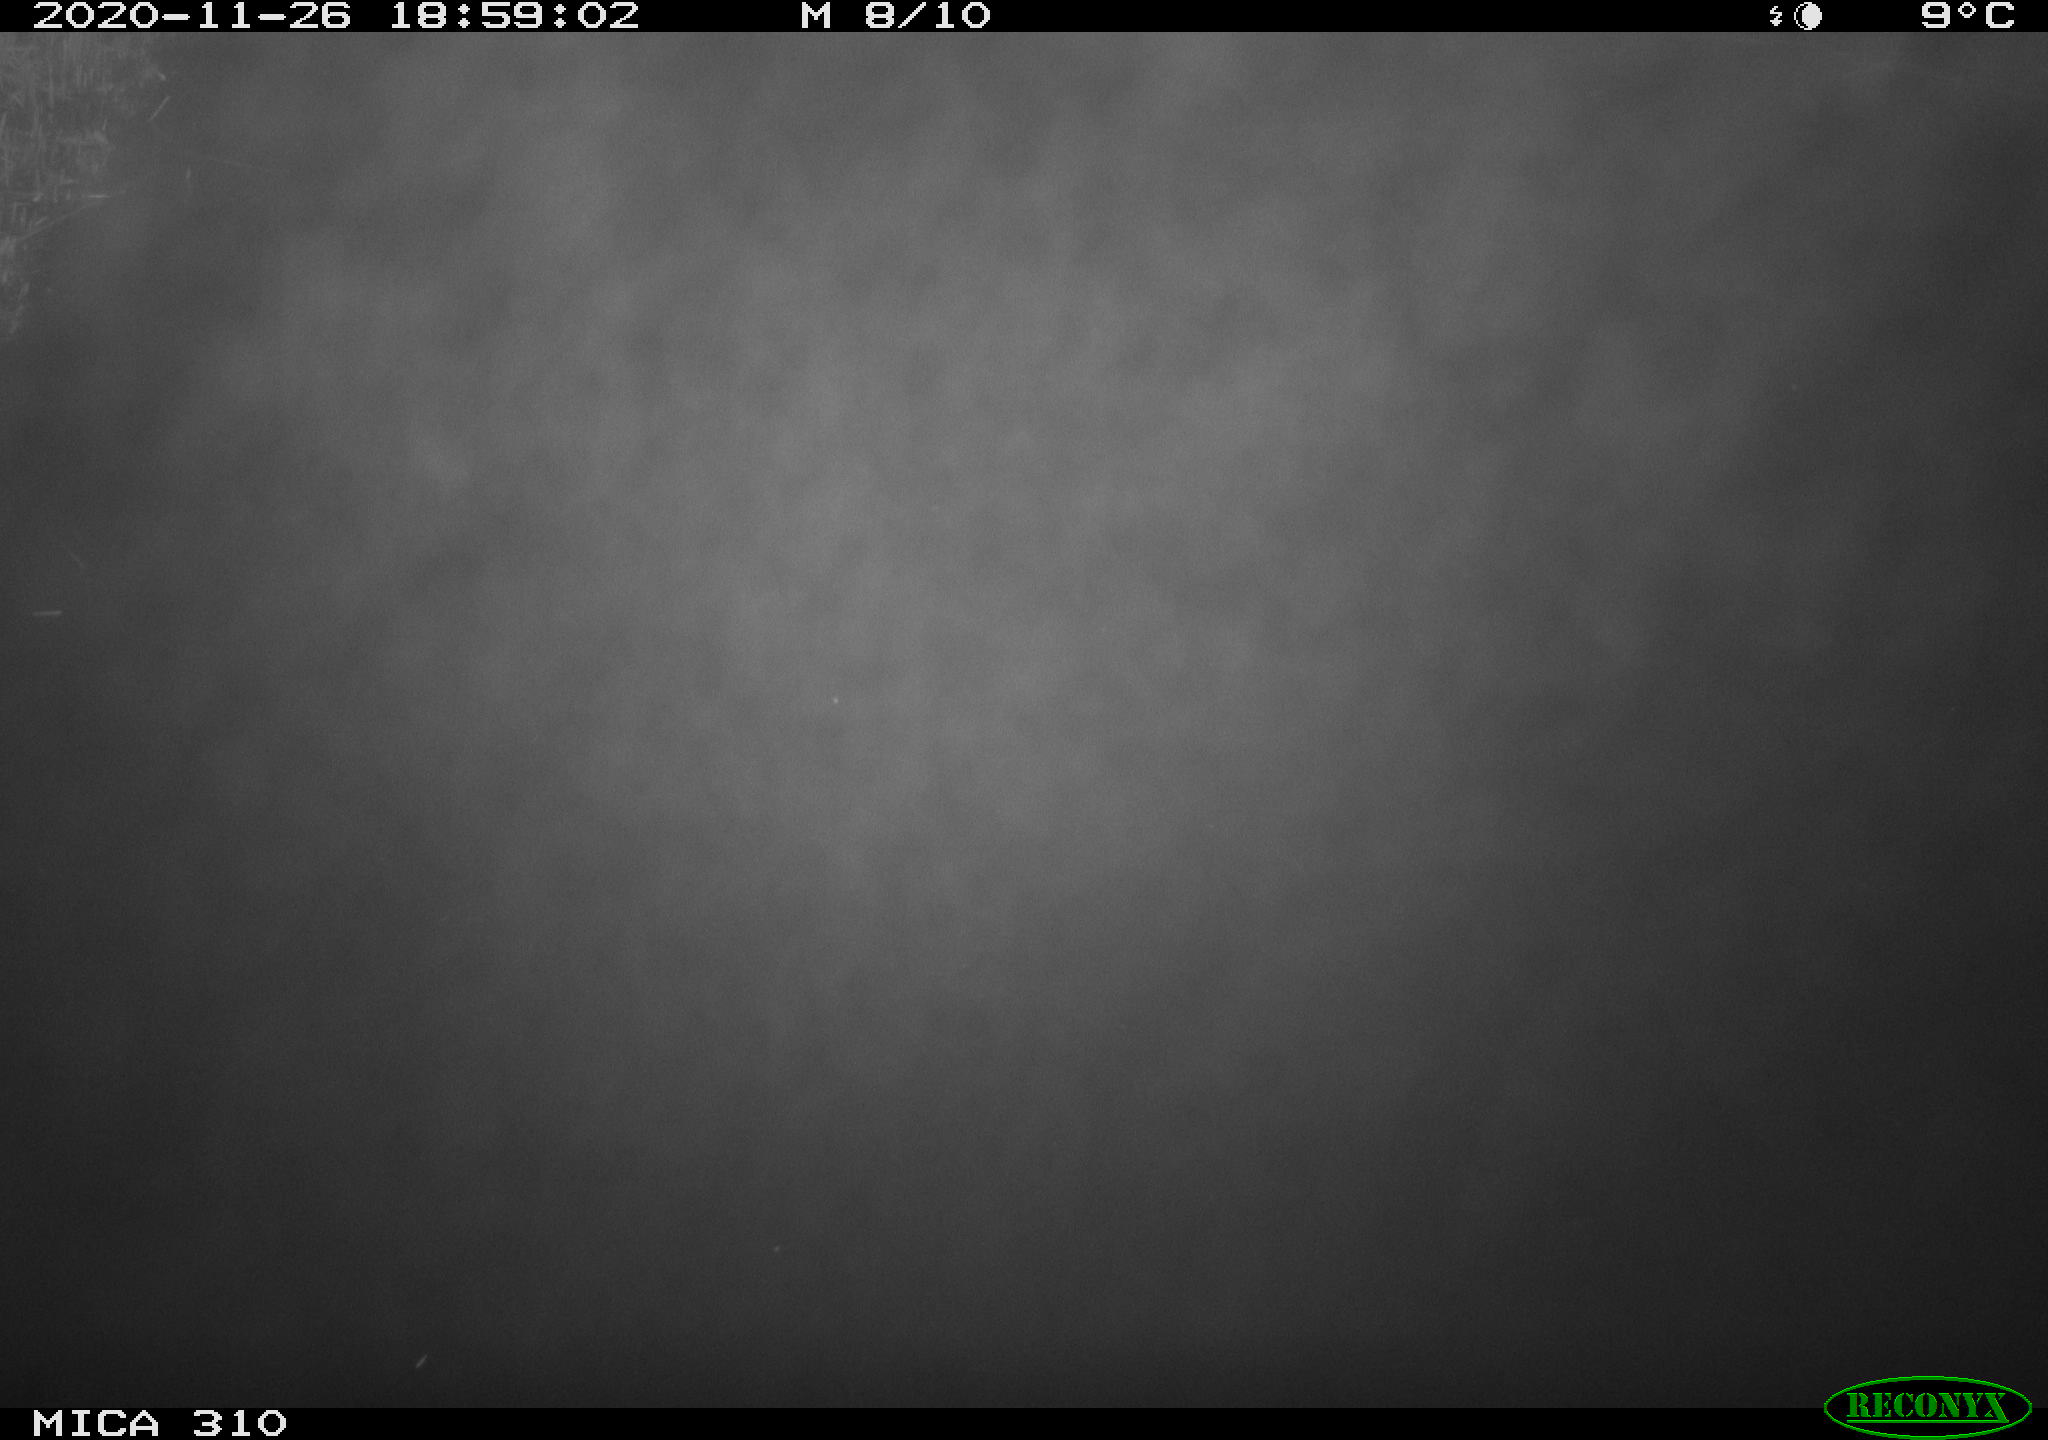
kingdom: Animalia
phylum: Chordata
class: Mammalia
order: Rodentia
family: Cricetidae
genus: Ondatra
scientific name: Ondatra zibethicus
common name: Muskrat
